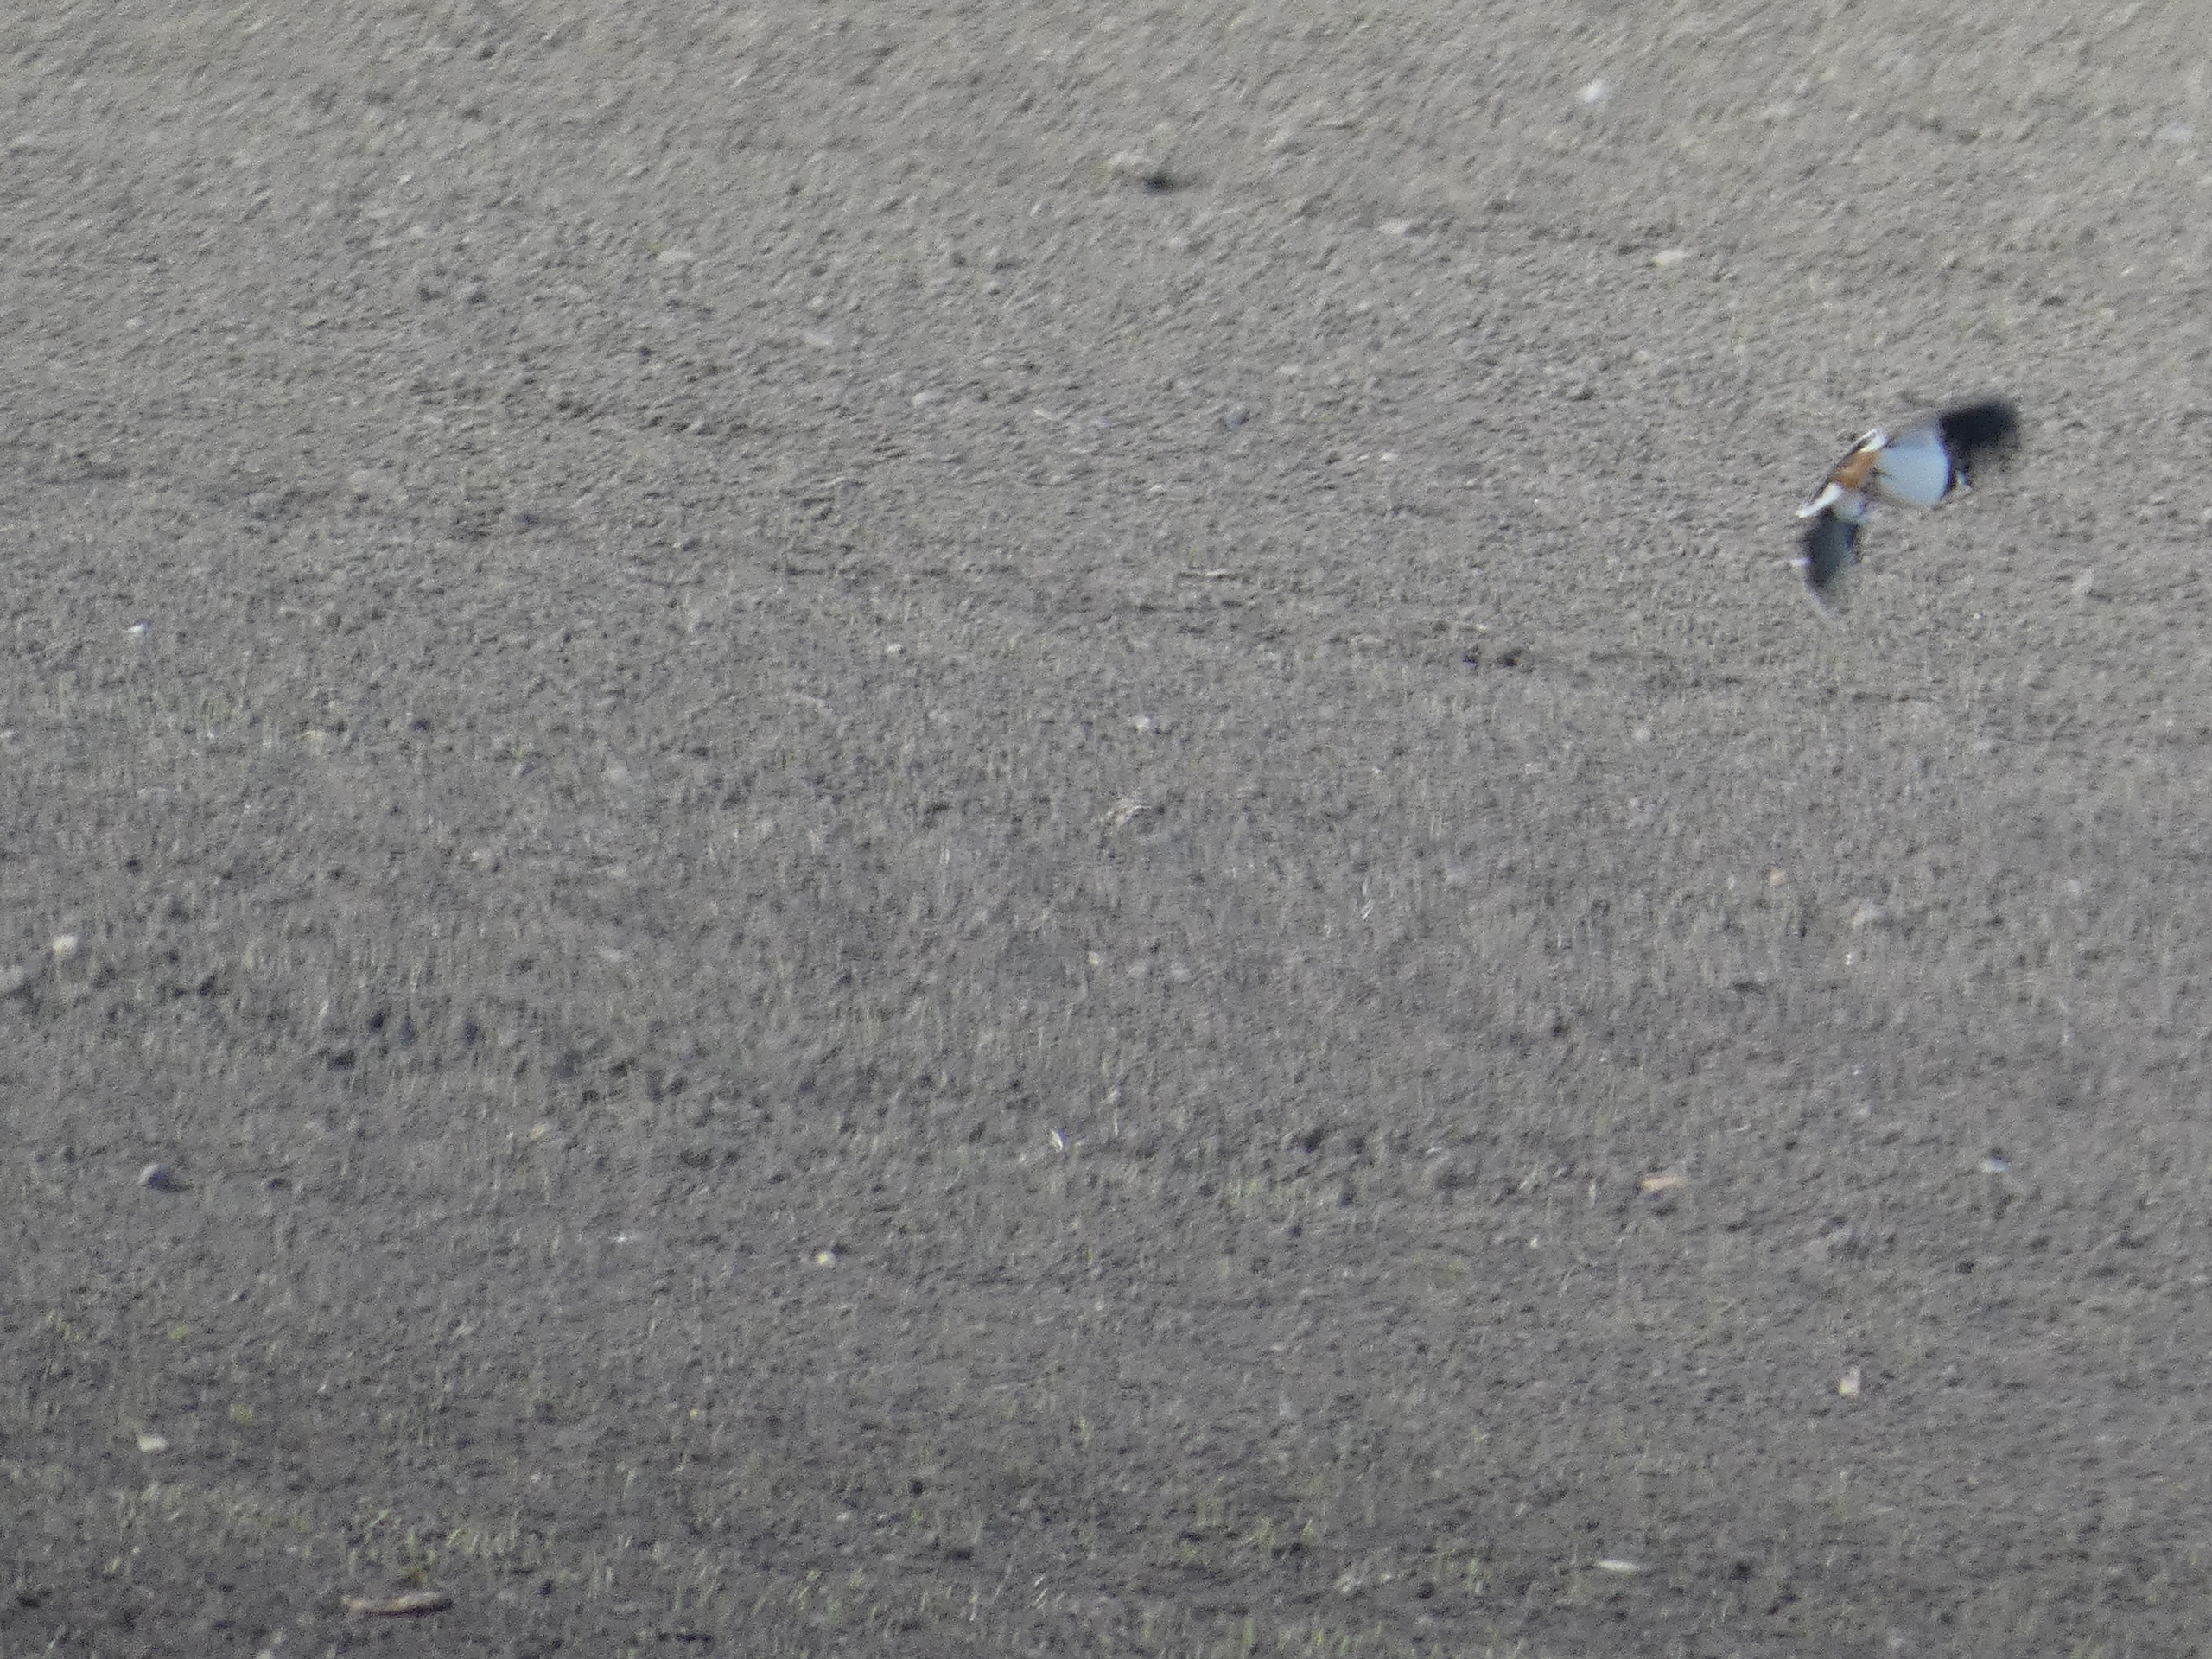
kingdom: Animalia
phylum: Chordata
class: Aves
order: Charadriiformes
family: Charadriidae
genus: Vanellus
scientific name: Vanellus vanellus
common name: Vibe
